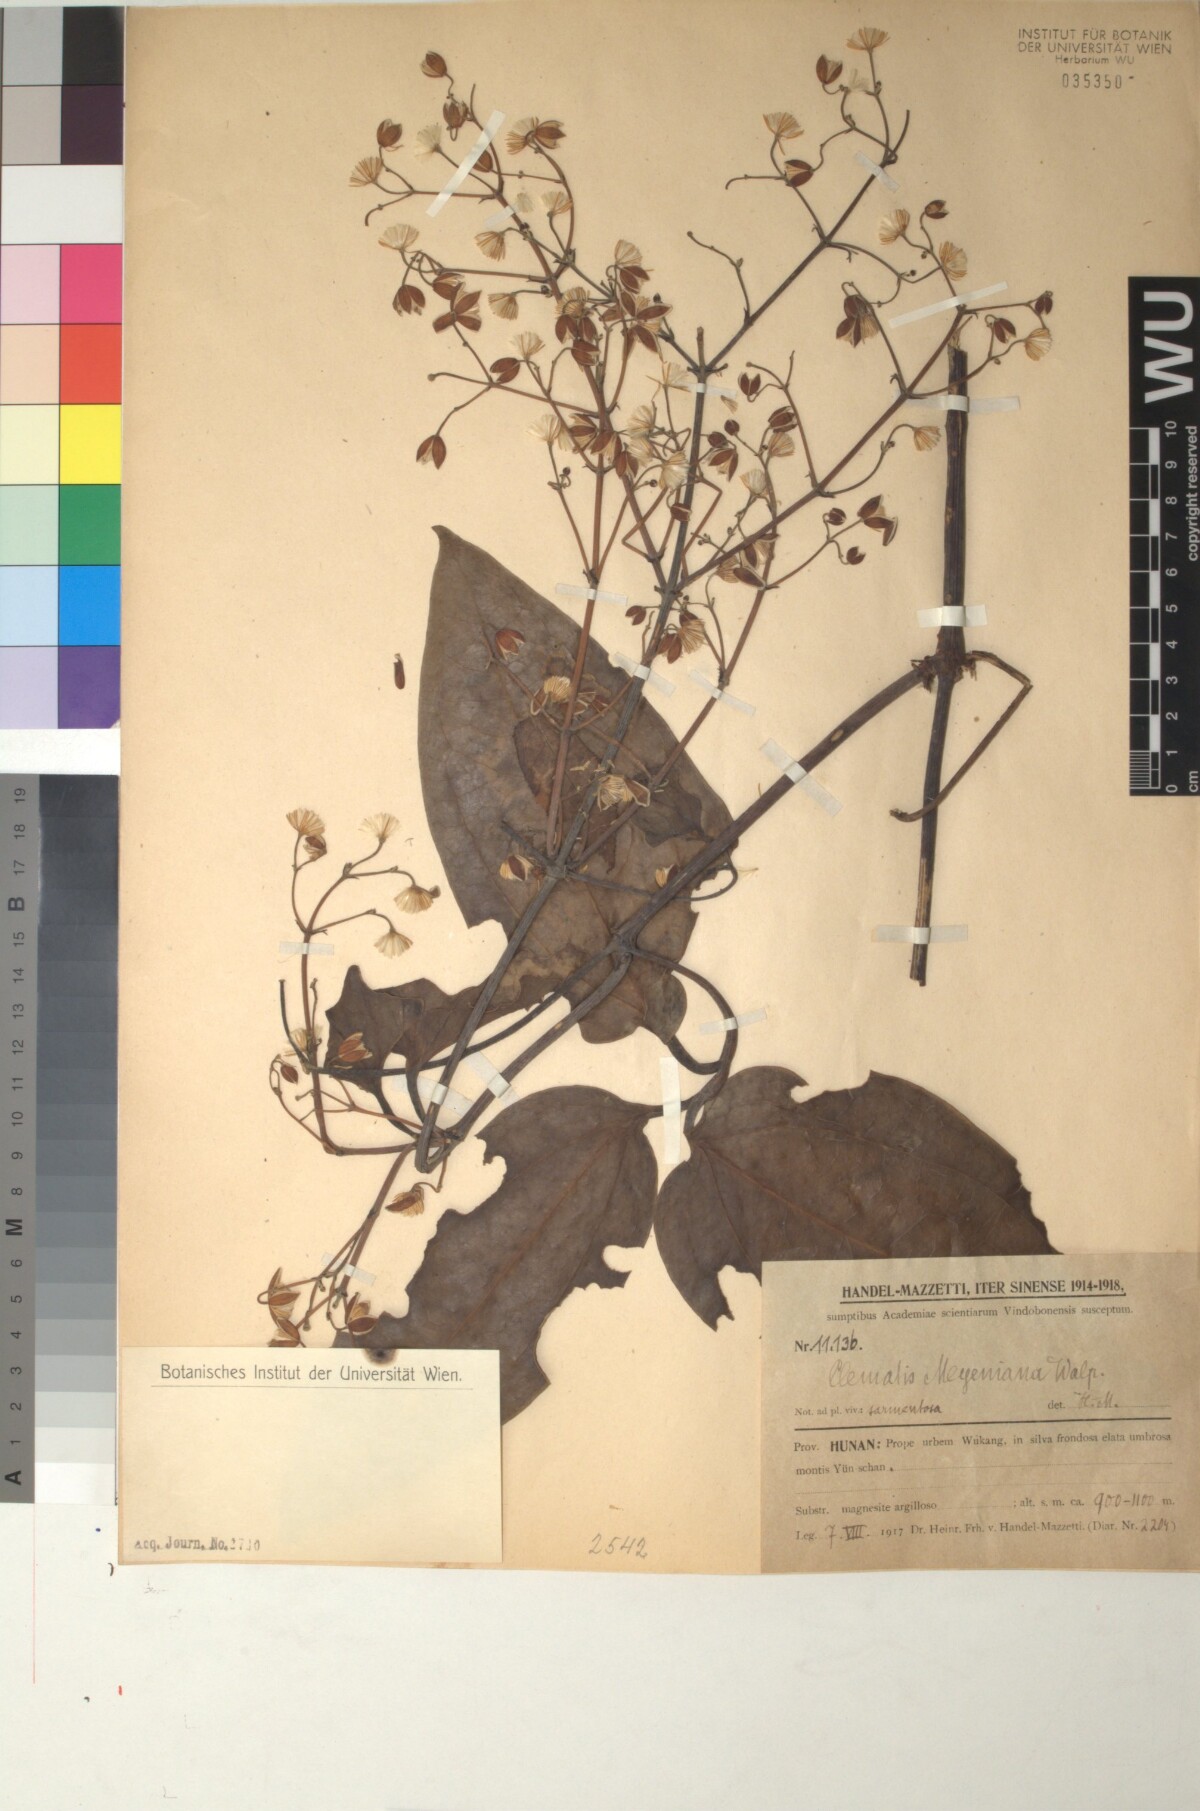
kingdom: Plantae
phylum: Tracheophyta
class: Magnoliopsida
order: Ranunculales
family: Ranunculaceae
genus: Clematis
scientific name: Clematis meyeniana
